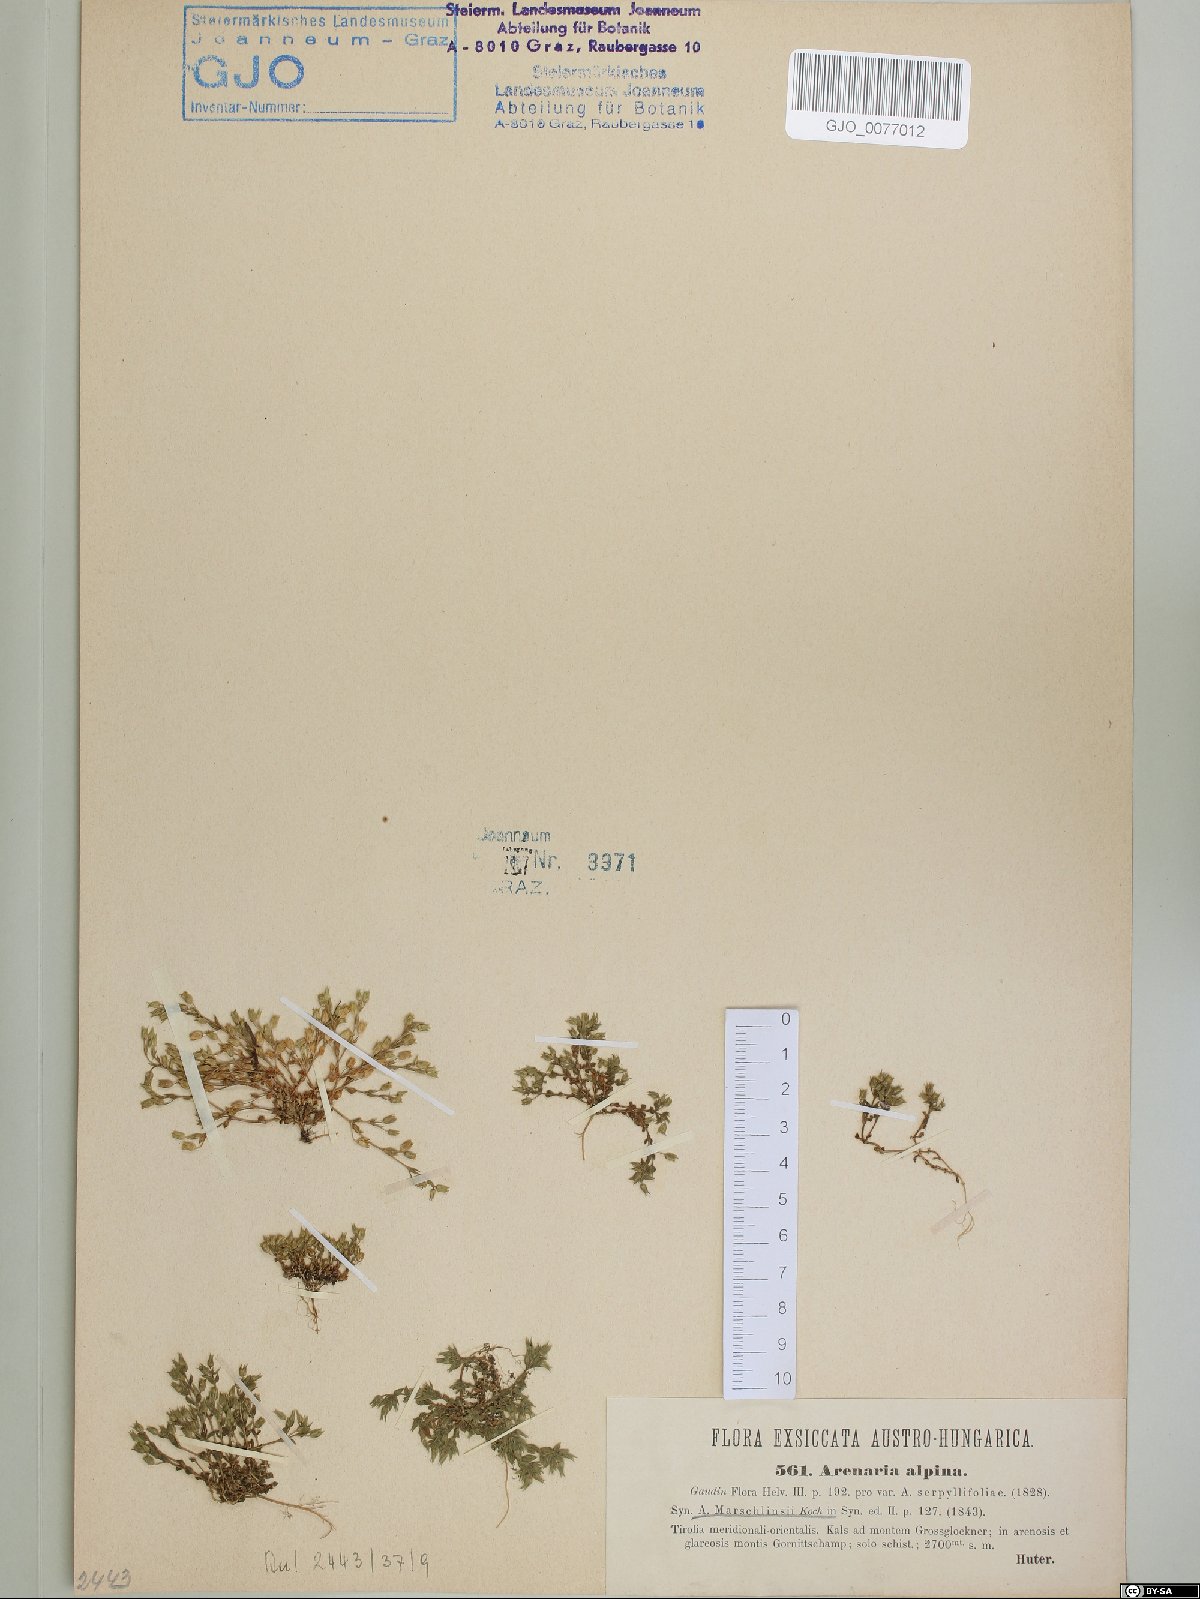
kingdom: Plantae
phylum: Tracheophyta
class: Magnoliopsida
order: Caryophyllales
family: Caryophyllaceae
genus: Arenaria
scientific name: Arenaria marschlinsii
